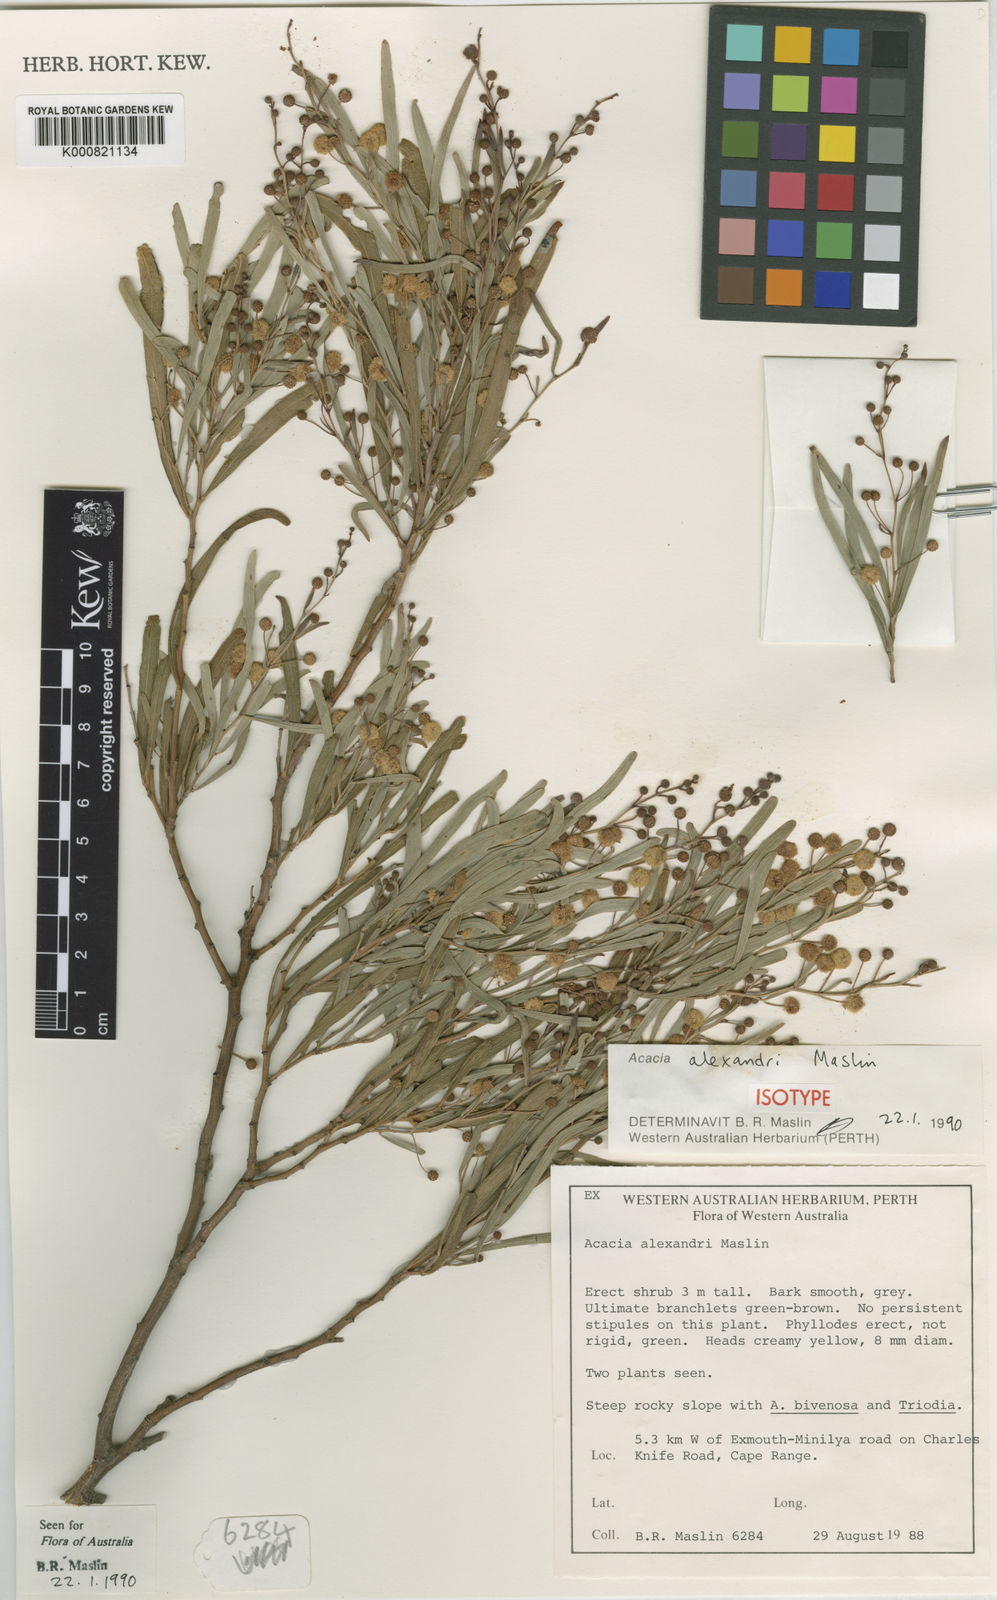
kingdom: Plantae
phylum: Tracheophyta
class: Magnoliopsida
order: Fabales
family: Fabaceae
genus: Acacia
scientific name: Acacia alexandri
